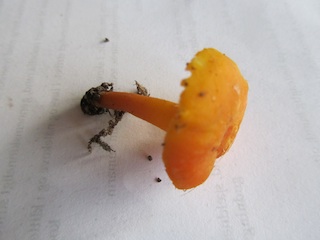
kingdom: Fungi
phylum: Basidiomycota
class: Agaricomycetes
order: Agaricales
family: Hygrophoraceae
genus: Hygrocybe
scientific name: Hygrocybe miniata
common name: mønje-vokshat
